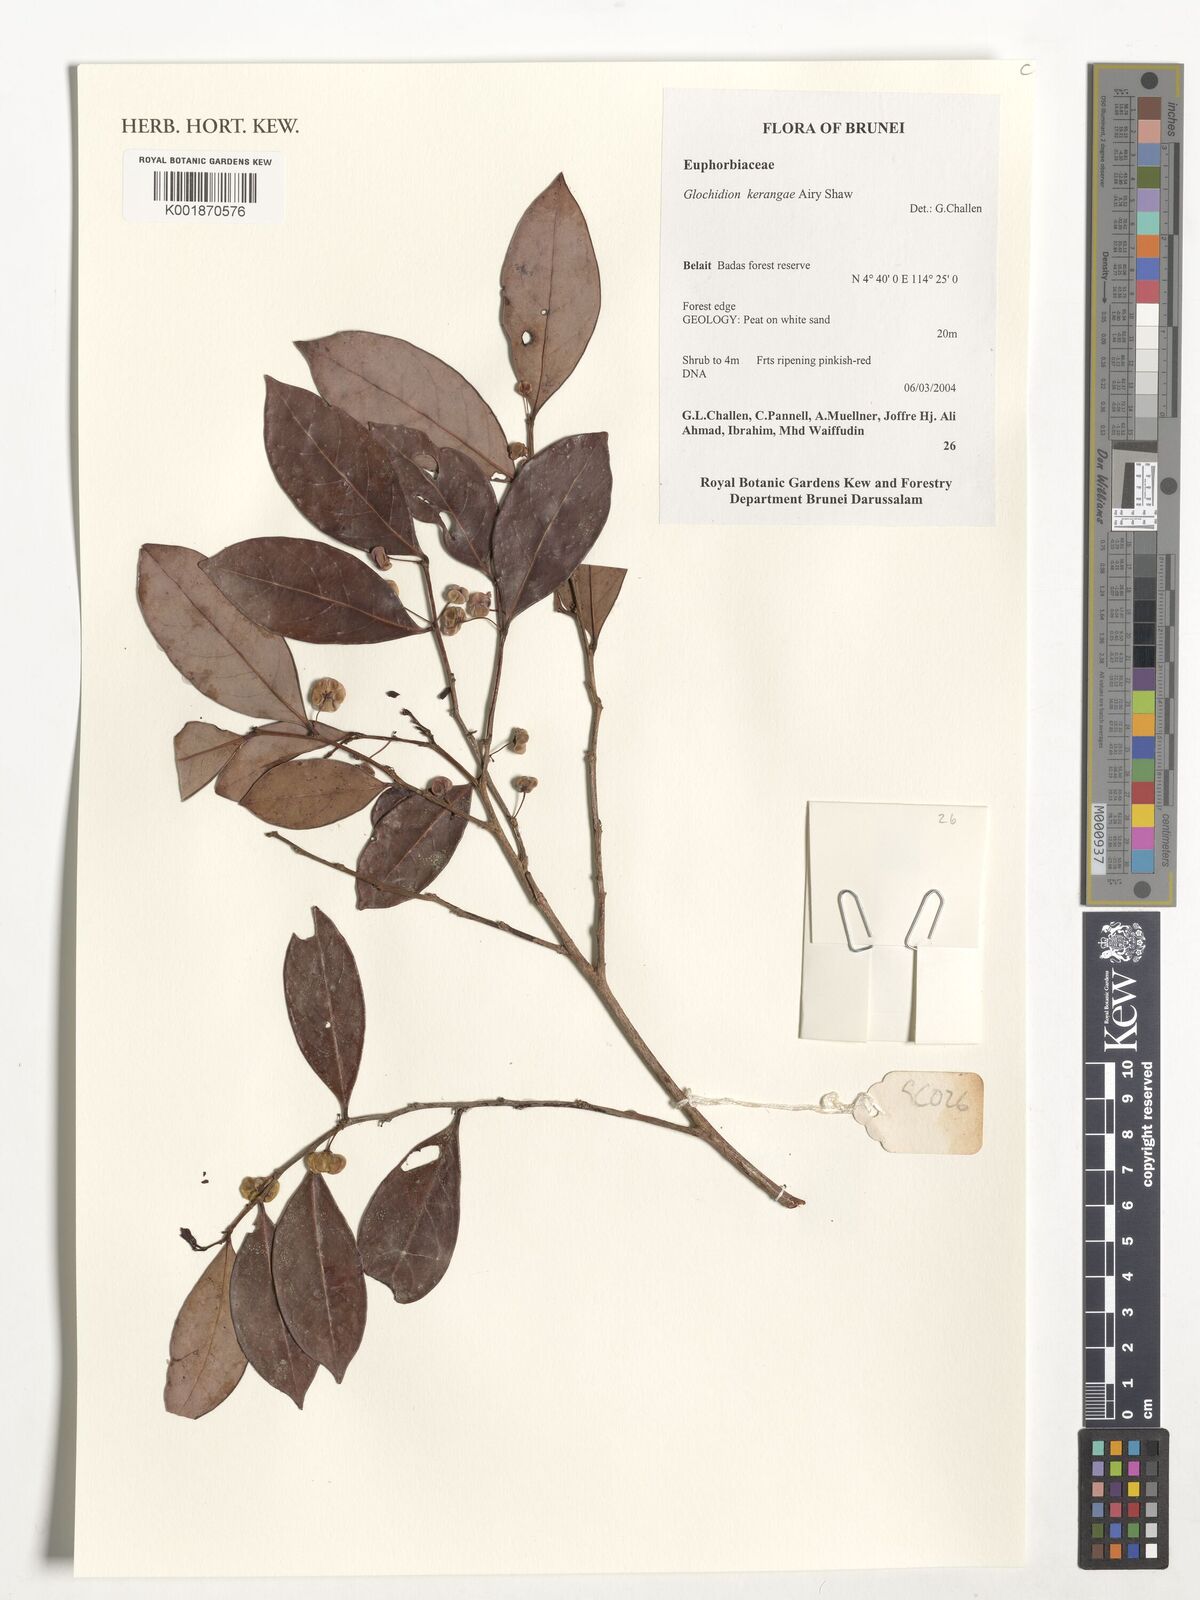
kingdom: Plantae
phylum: Tracheophyta
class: Magnoliopsida
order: Malpighiales
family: Phyllanthaceae
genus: Glochidion
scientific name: Glochidion kerangae
